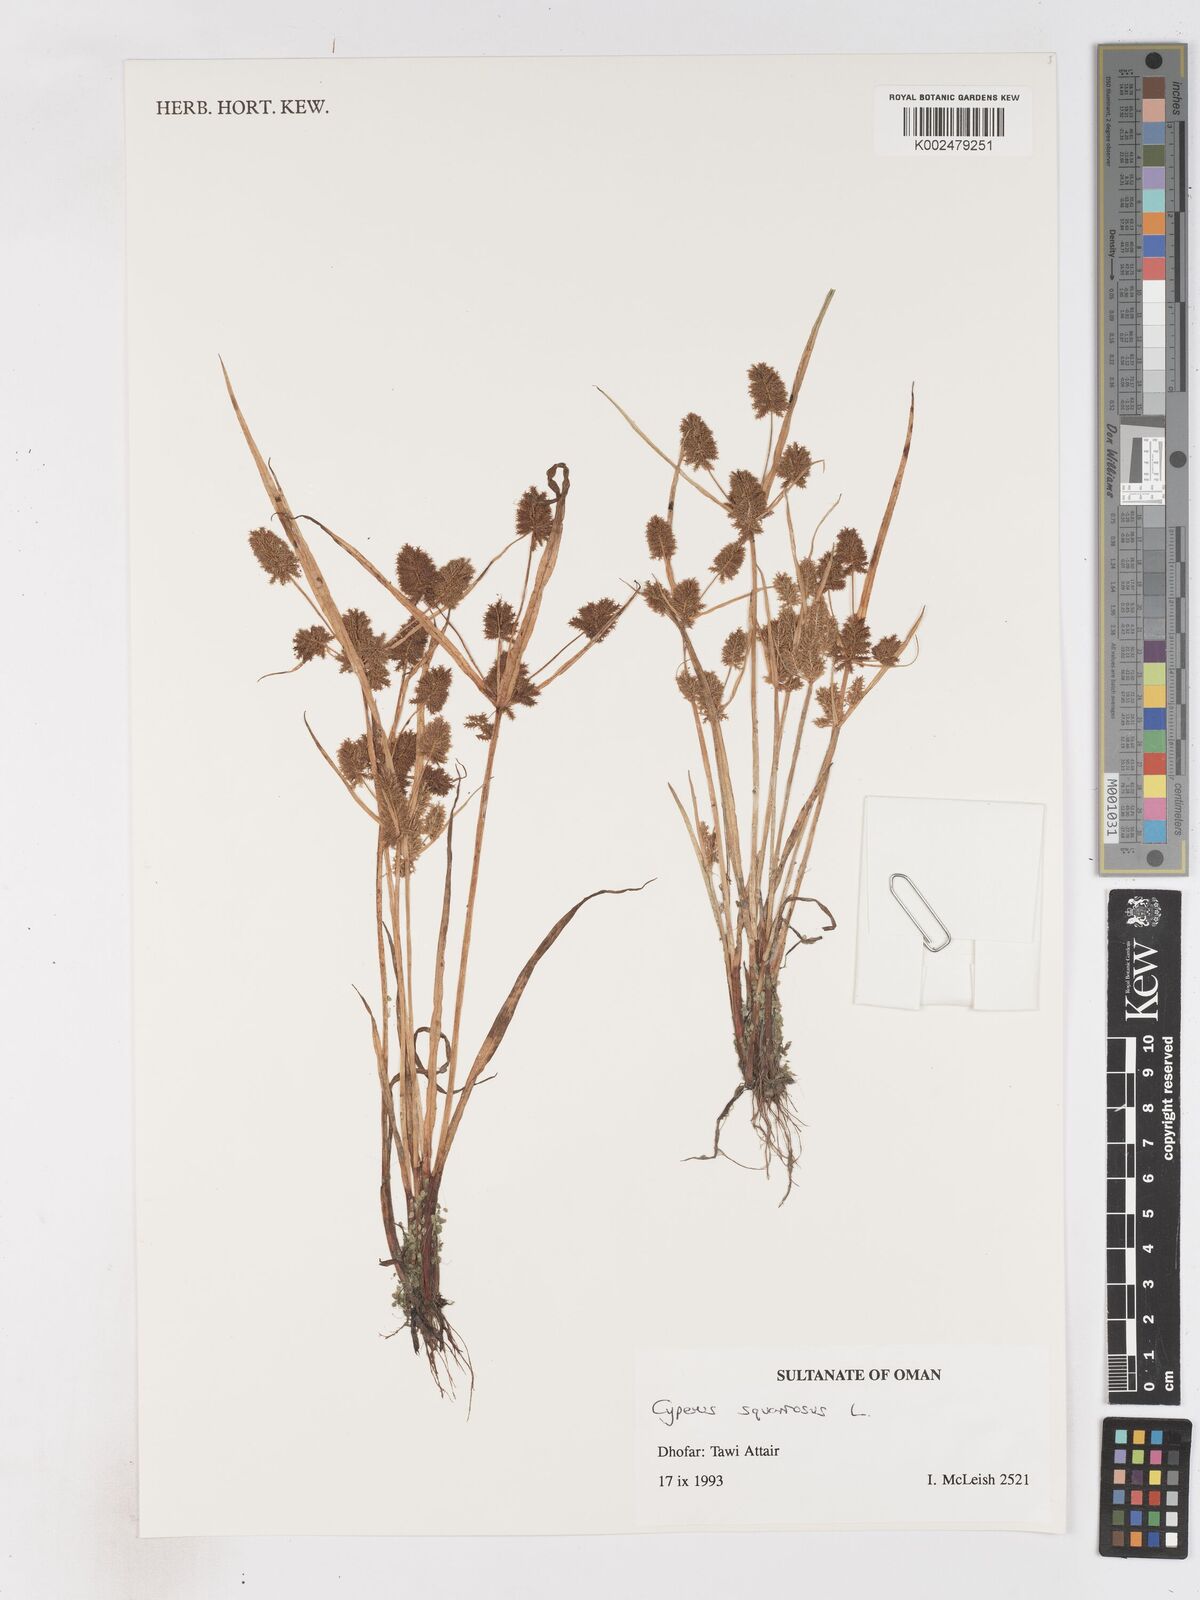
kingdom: Plantae
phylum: Tracheophyta
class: Liliopsida
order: Poales
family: Cyperaceae
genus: Cyperus
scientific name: Cyperus squarrosus
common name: Awned cyperus
